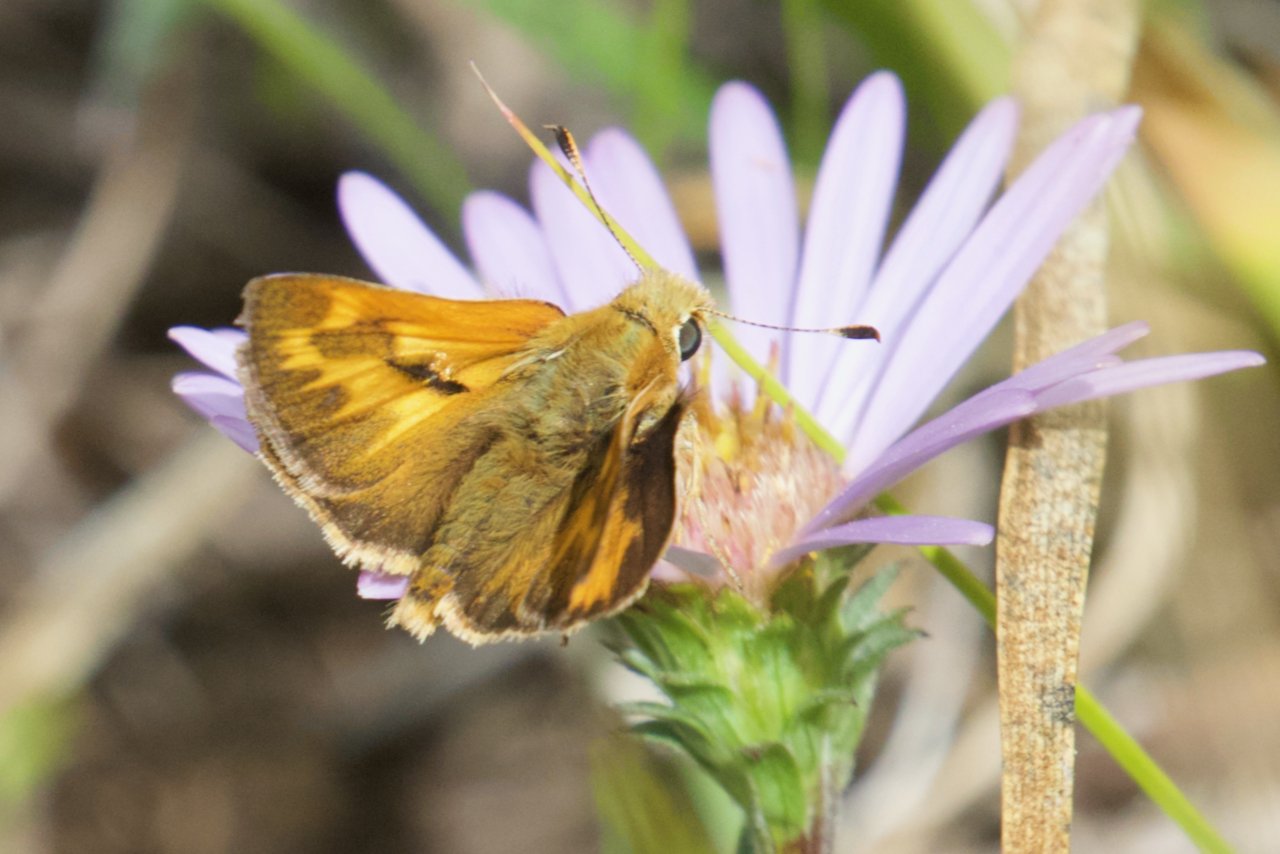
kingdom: Animalia
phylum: Arthropoda
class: Insecta
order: Lepidoptera
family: Hesperiidae
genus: Ochlodes
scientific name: Ochlodes sylvanoides
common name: Woodland Skipper
